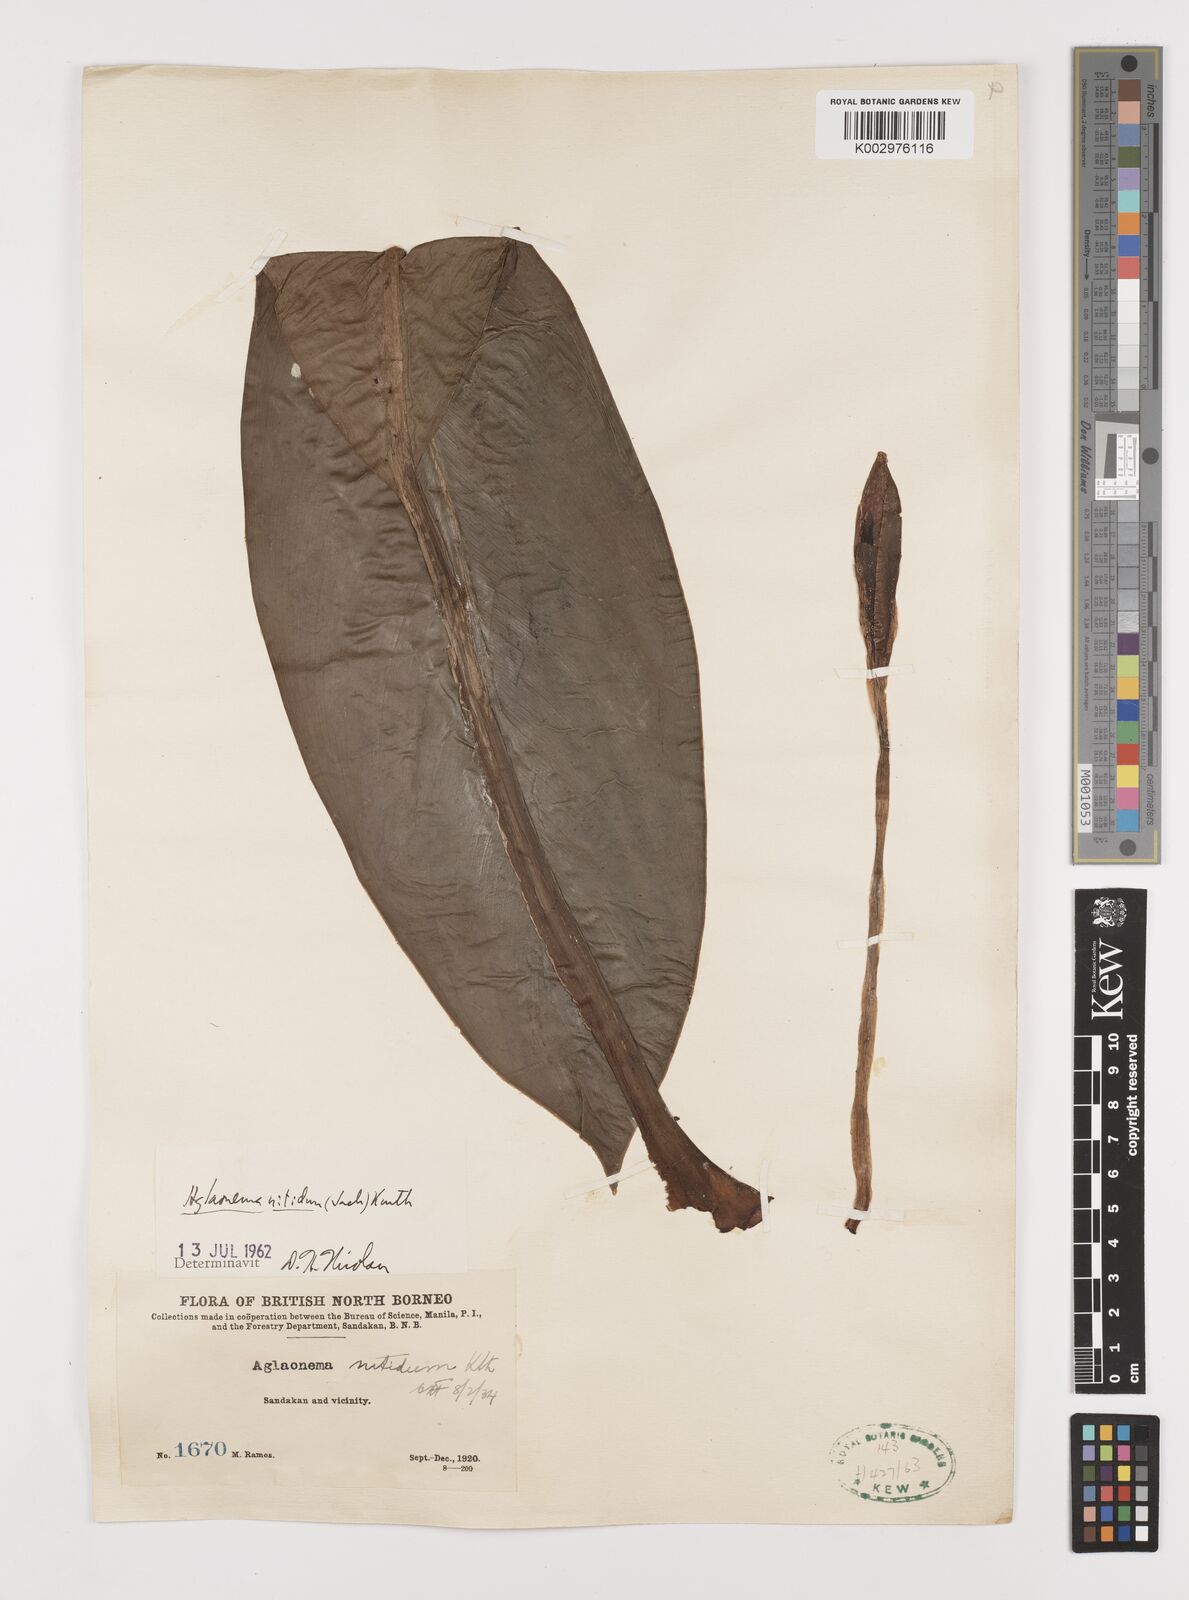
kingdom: Plantae
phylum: Tracheophyta
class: Liliopsida
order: Alismatales
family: Araceae
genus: Aglaonema
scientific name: Aglaonema nitidum
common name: Aglaonema aroid
